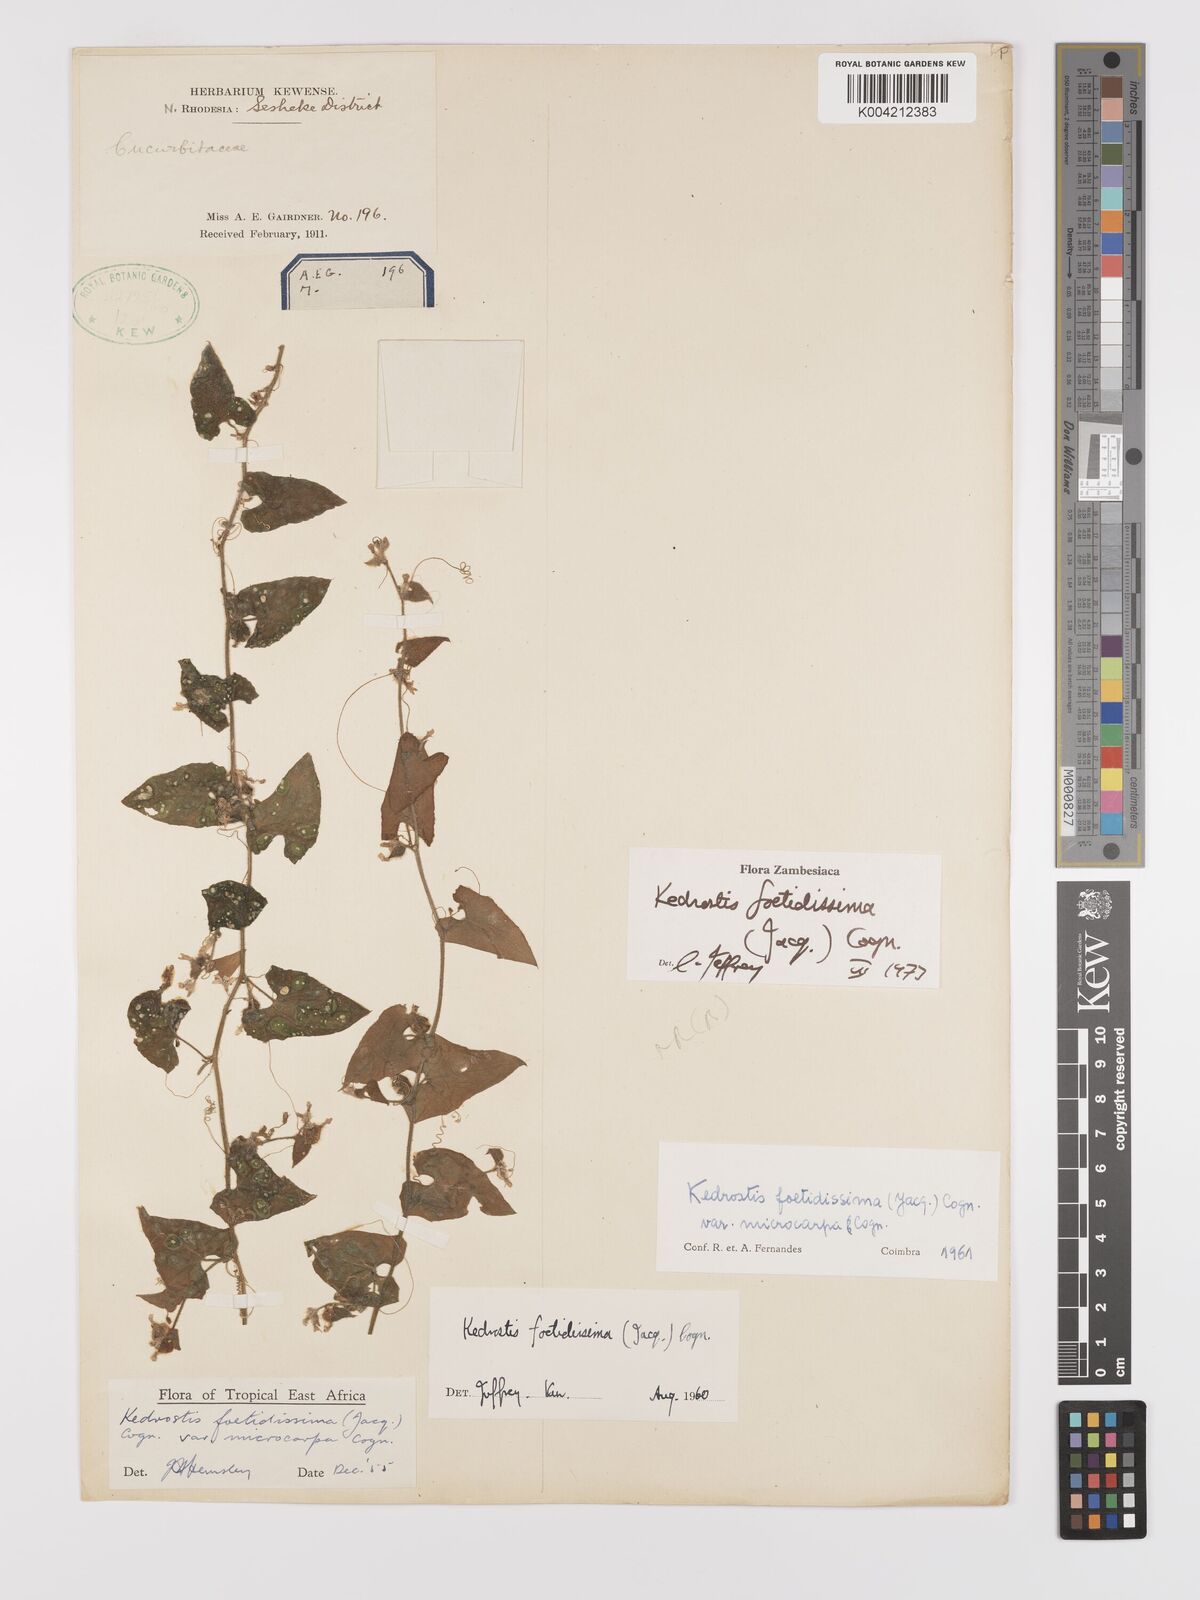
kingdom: Plantae
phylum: Tracheophyta
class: Magnoliopsida
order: Cucurbitales
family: Cucurbitaceae
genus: Kedrostis
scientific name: Kedrostis foetidissima
